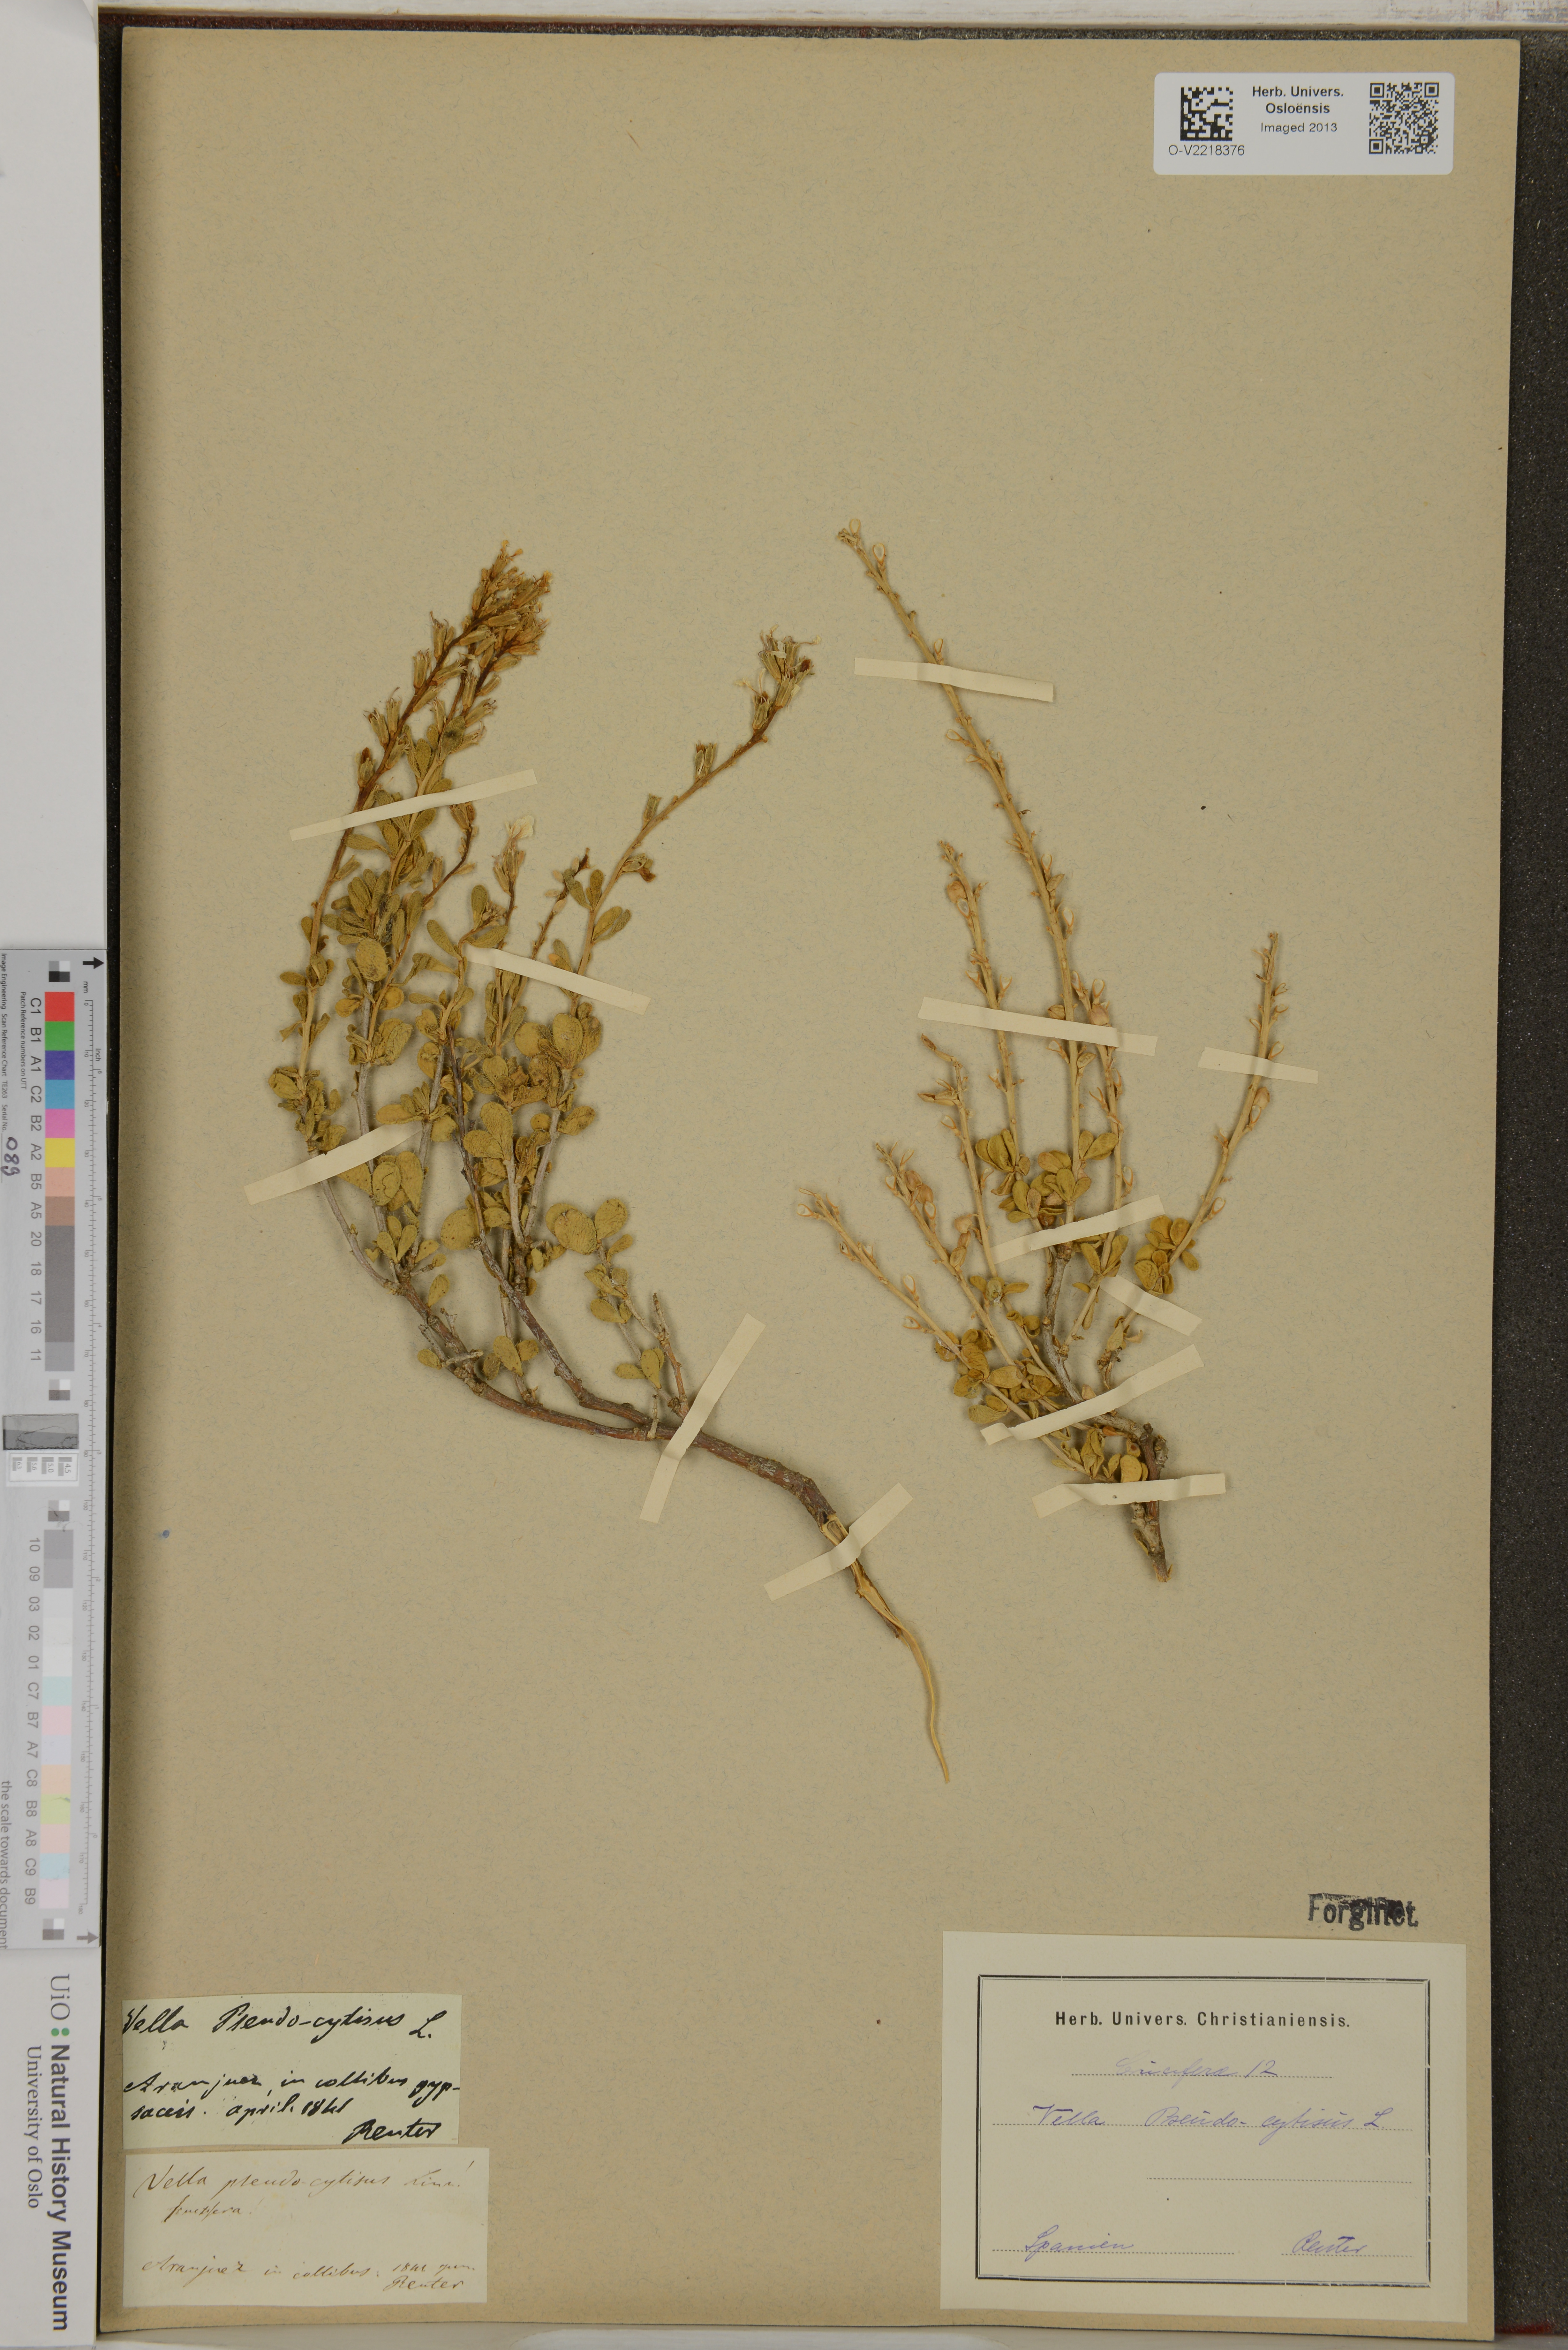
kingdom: Plantae
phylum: Tracheophyta
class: Magnoliopsida
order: Brassicales
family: Brassicaceae
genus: Vella
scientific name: Vella pseudocytisus
